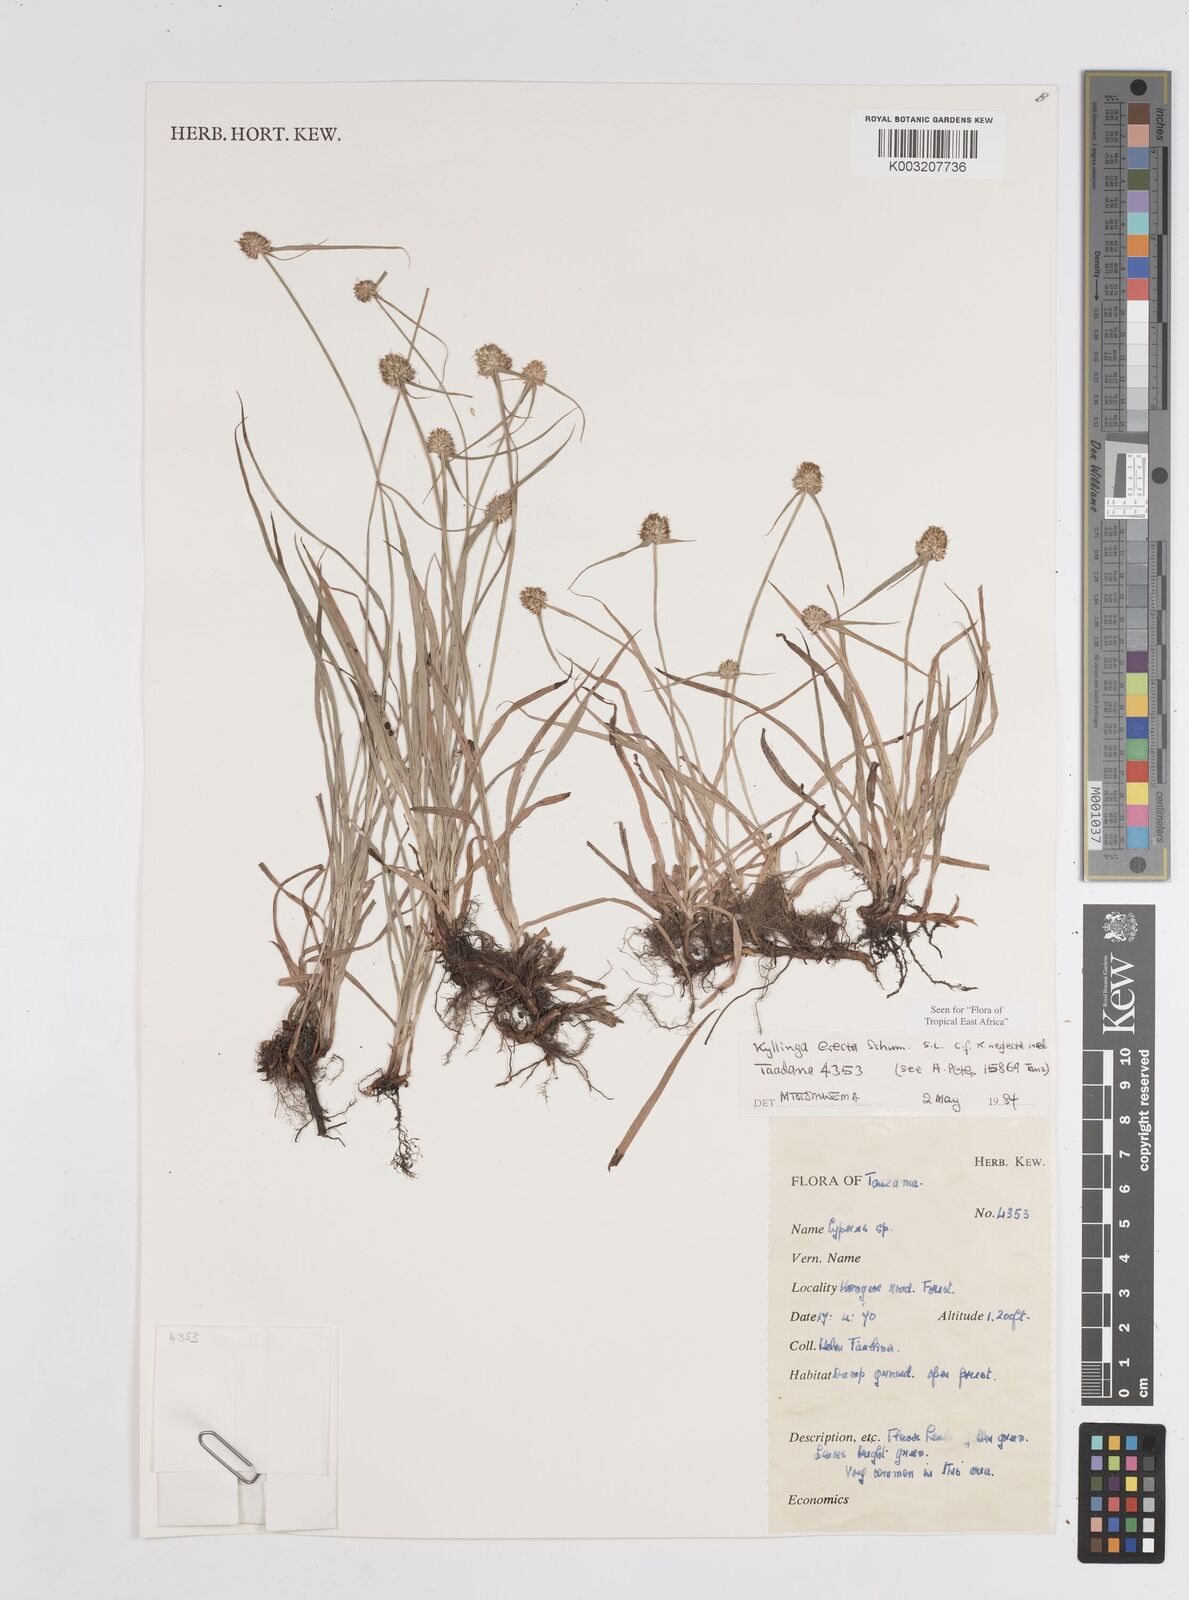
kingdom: Plantae
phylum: Tracheophyta
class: Liliopsida
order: Poales
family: Cyperaceae
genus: Cyperus
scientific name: Cyperus erectus
